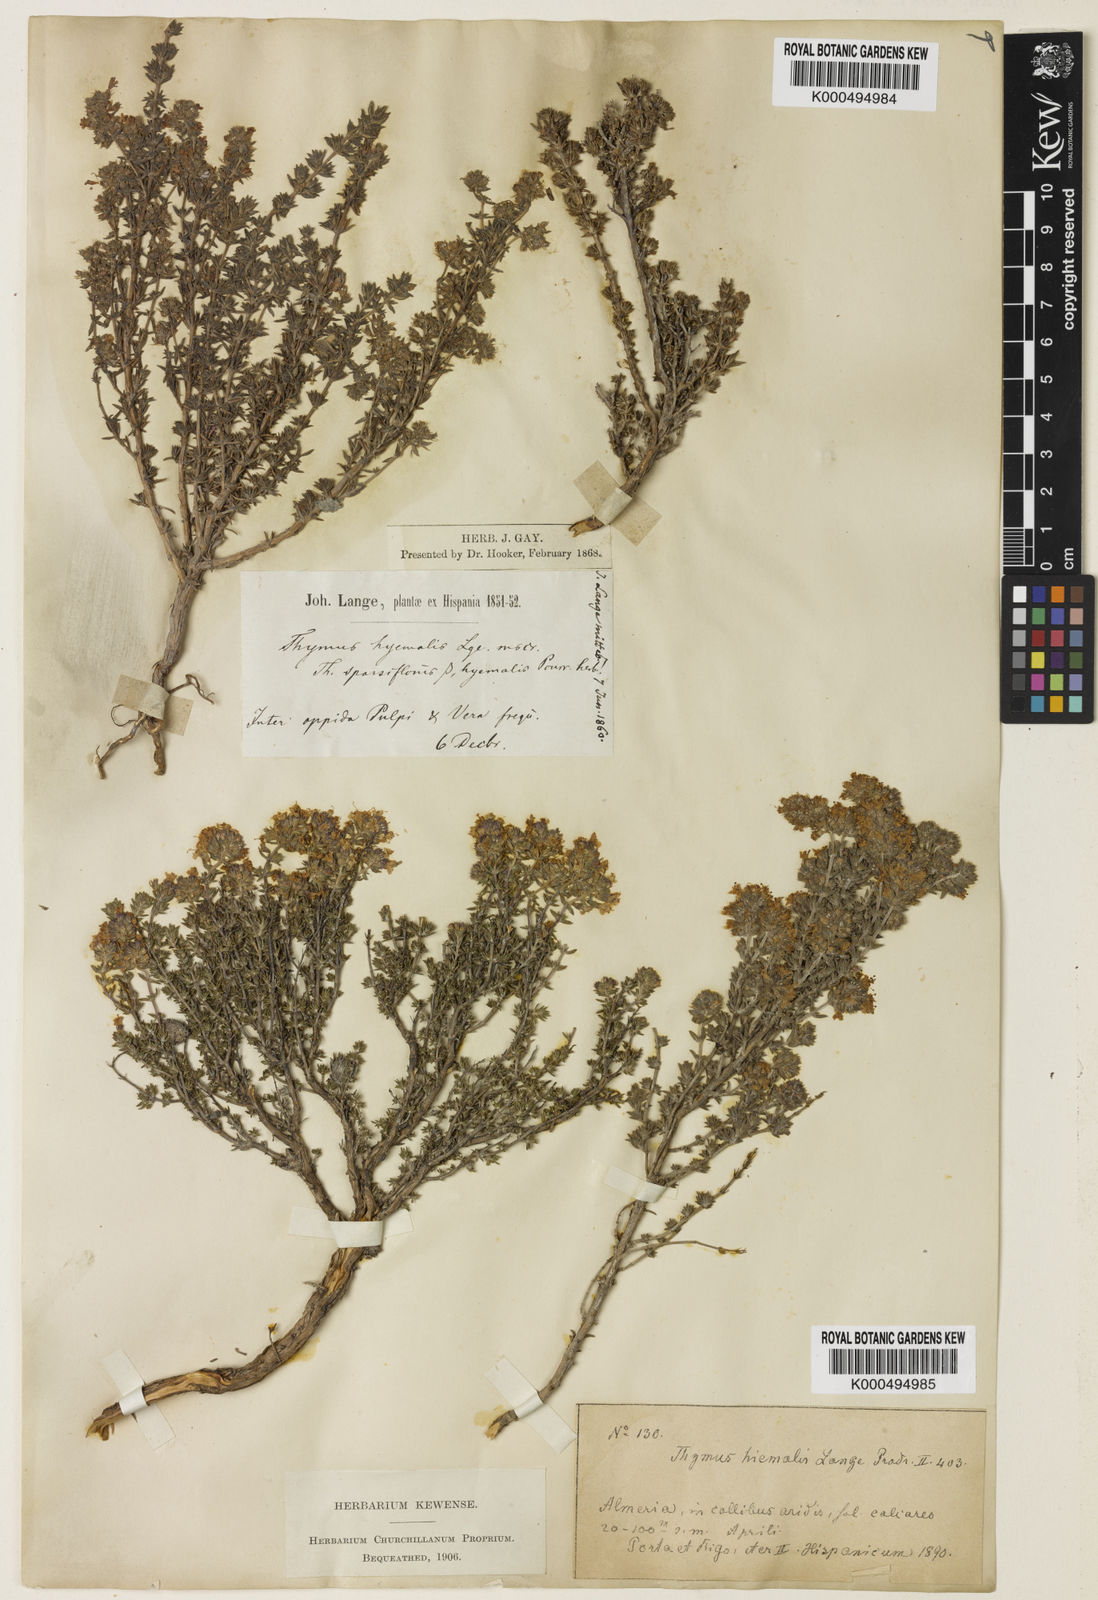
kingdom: Plantae
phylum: Tracheophyta
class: Magnoliopsida
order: Lamiales
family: Lamiaceae
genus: Thymus
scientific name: Thymus hyemalis
